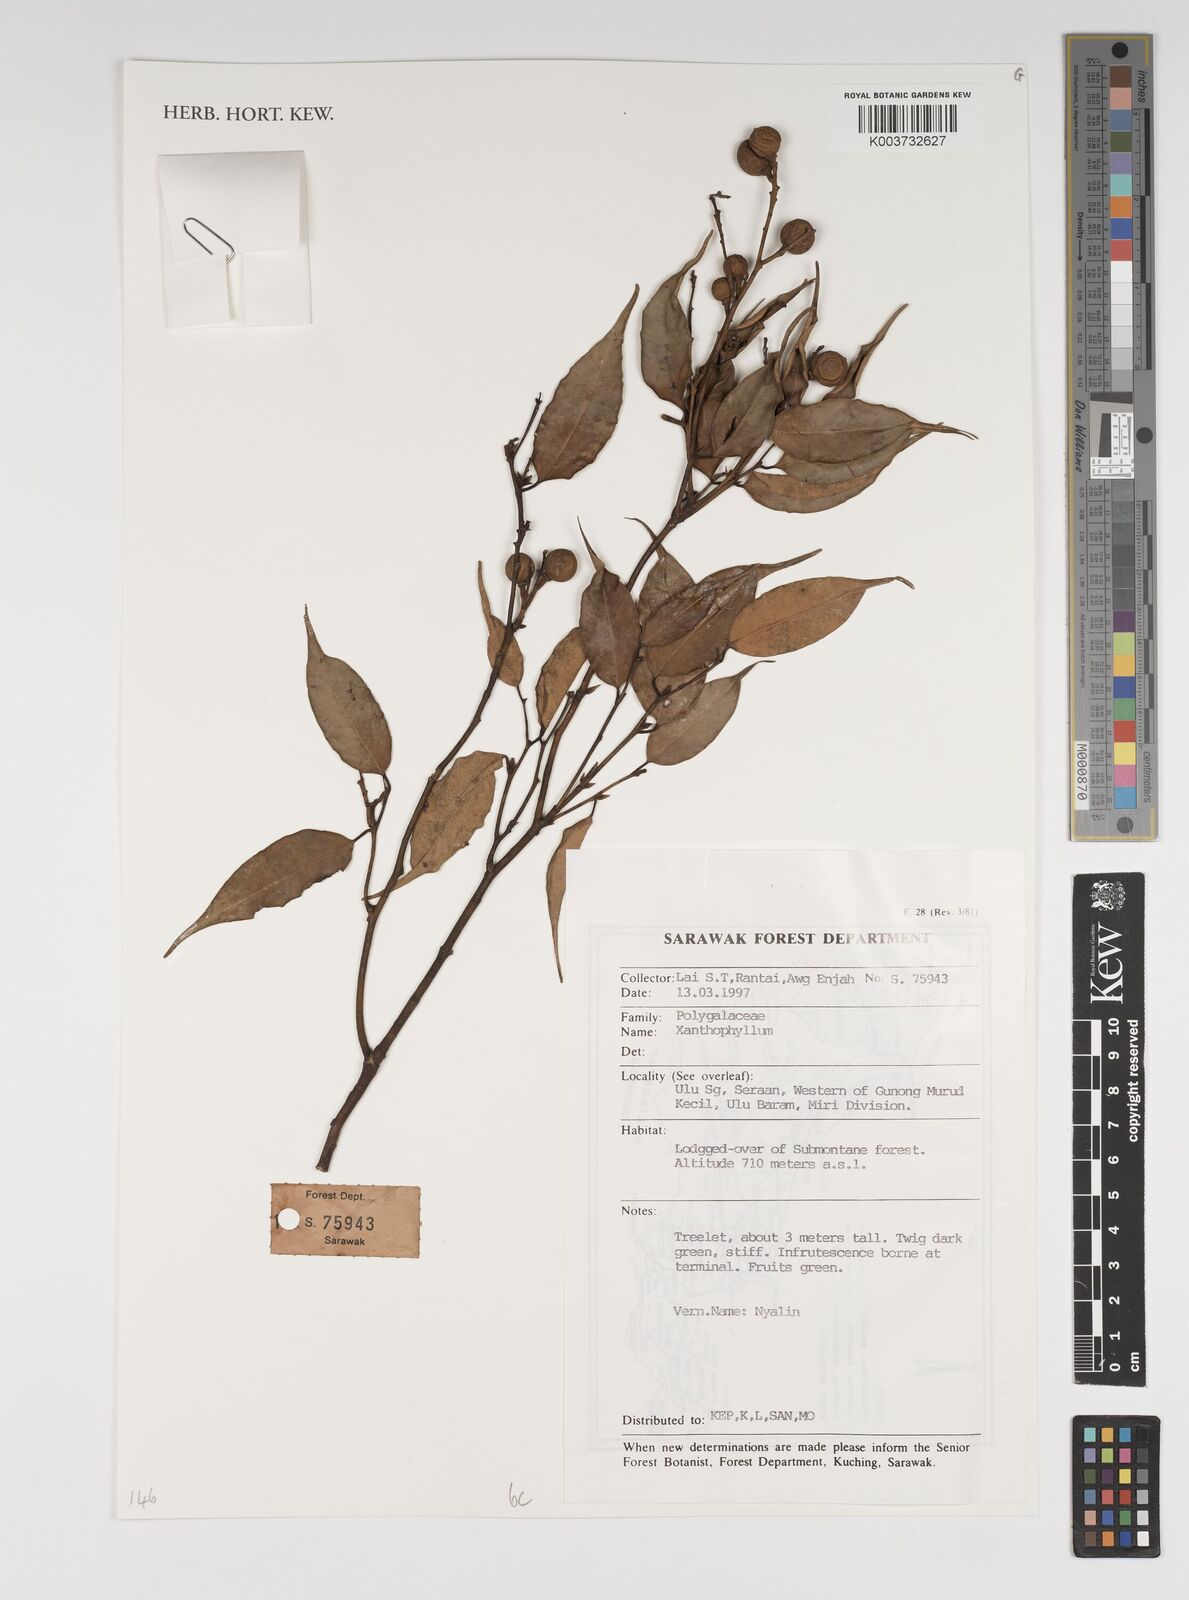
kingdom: Plantae
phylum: Tracheophyta
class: Magnoliopsida
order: Fabales
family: Polygalaceae
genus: Xanthophyllum
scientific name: Xanthophyllum
